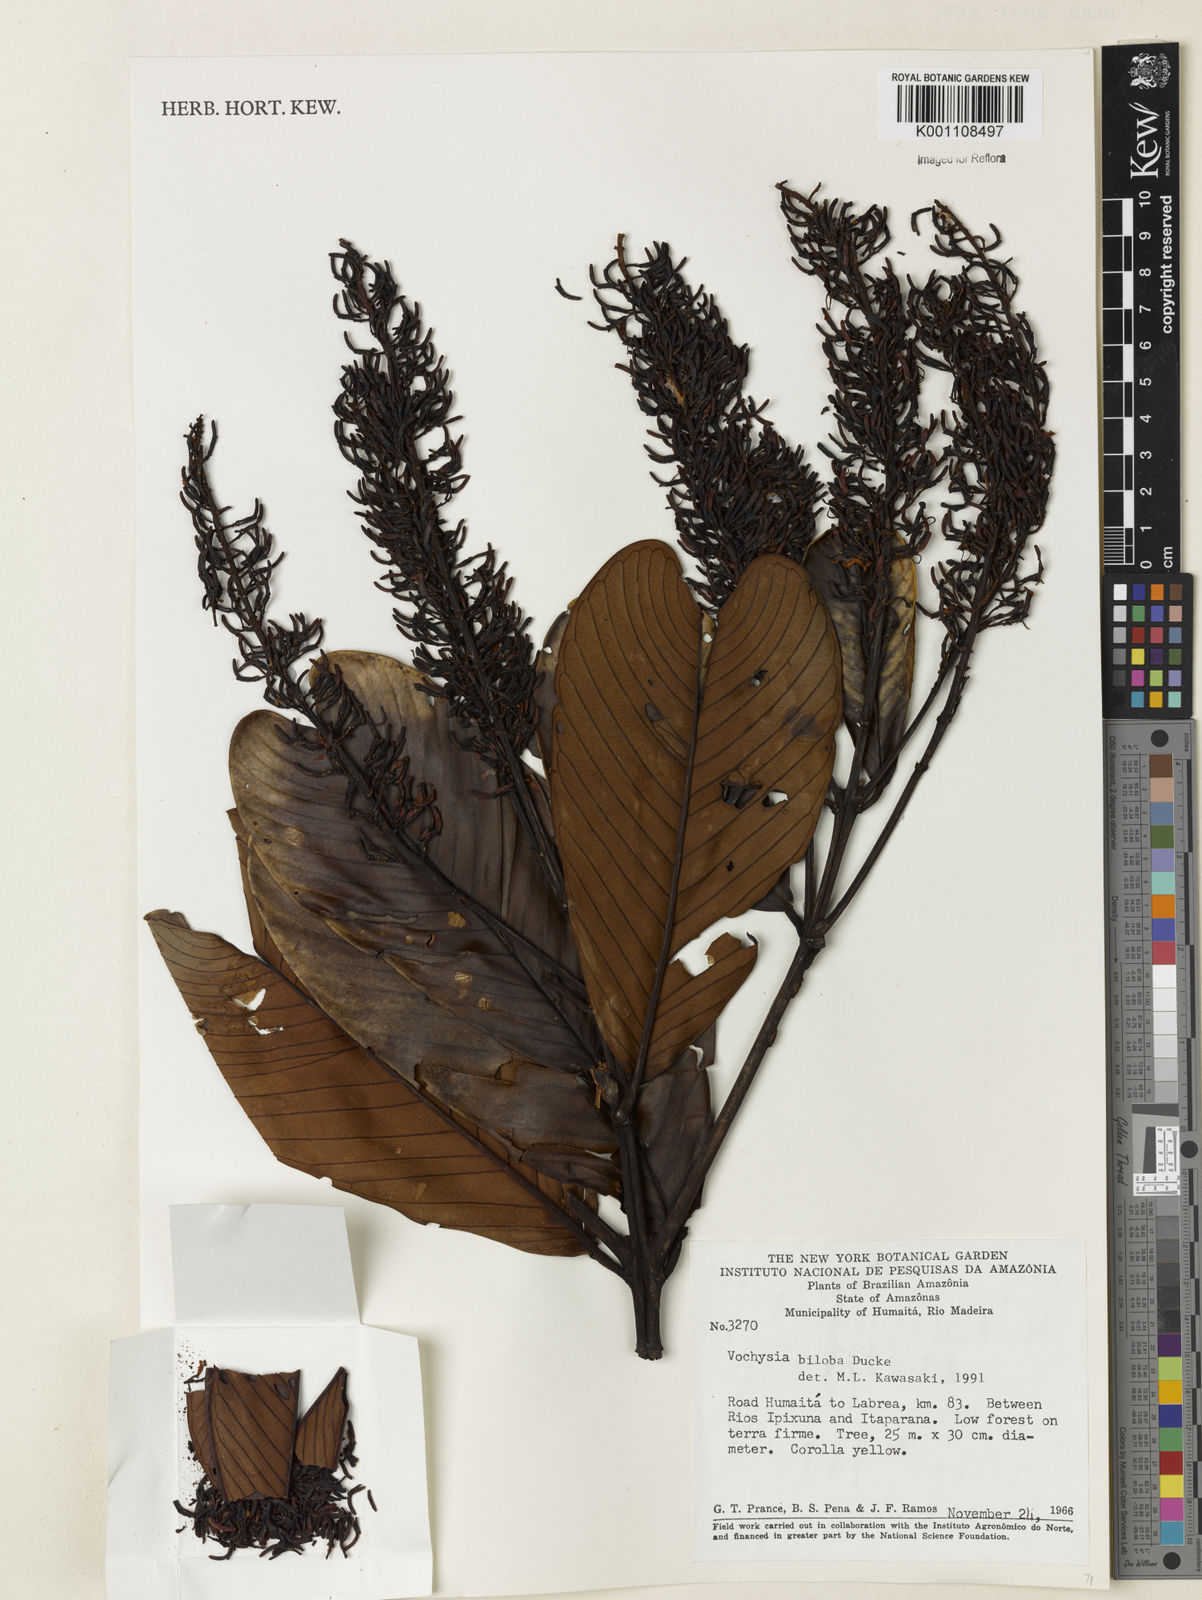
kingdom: Plantae
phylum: Tracheophyta
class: Magnoliopsida
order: Myrtales
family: Vochysiaceae
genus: Vochysia
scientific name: Vochysia biloba
